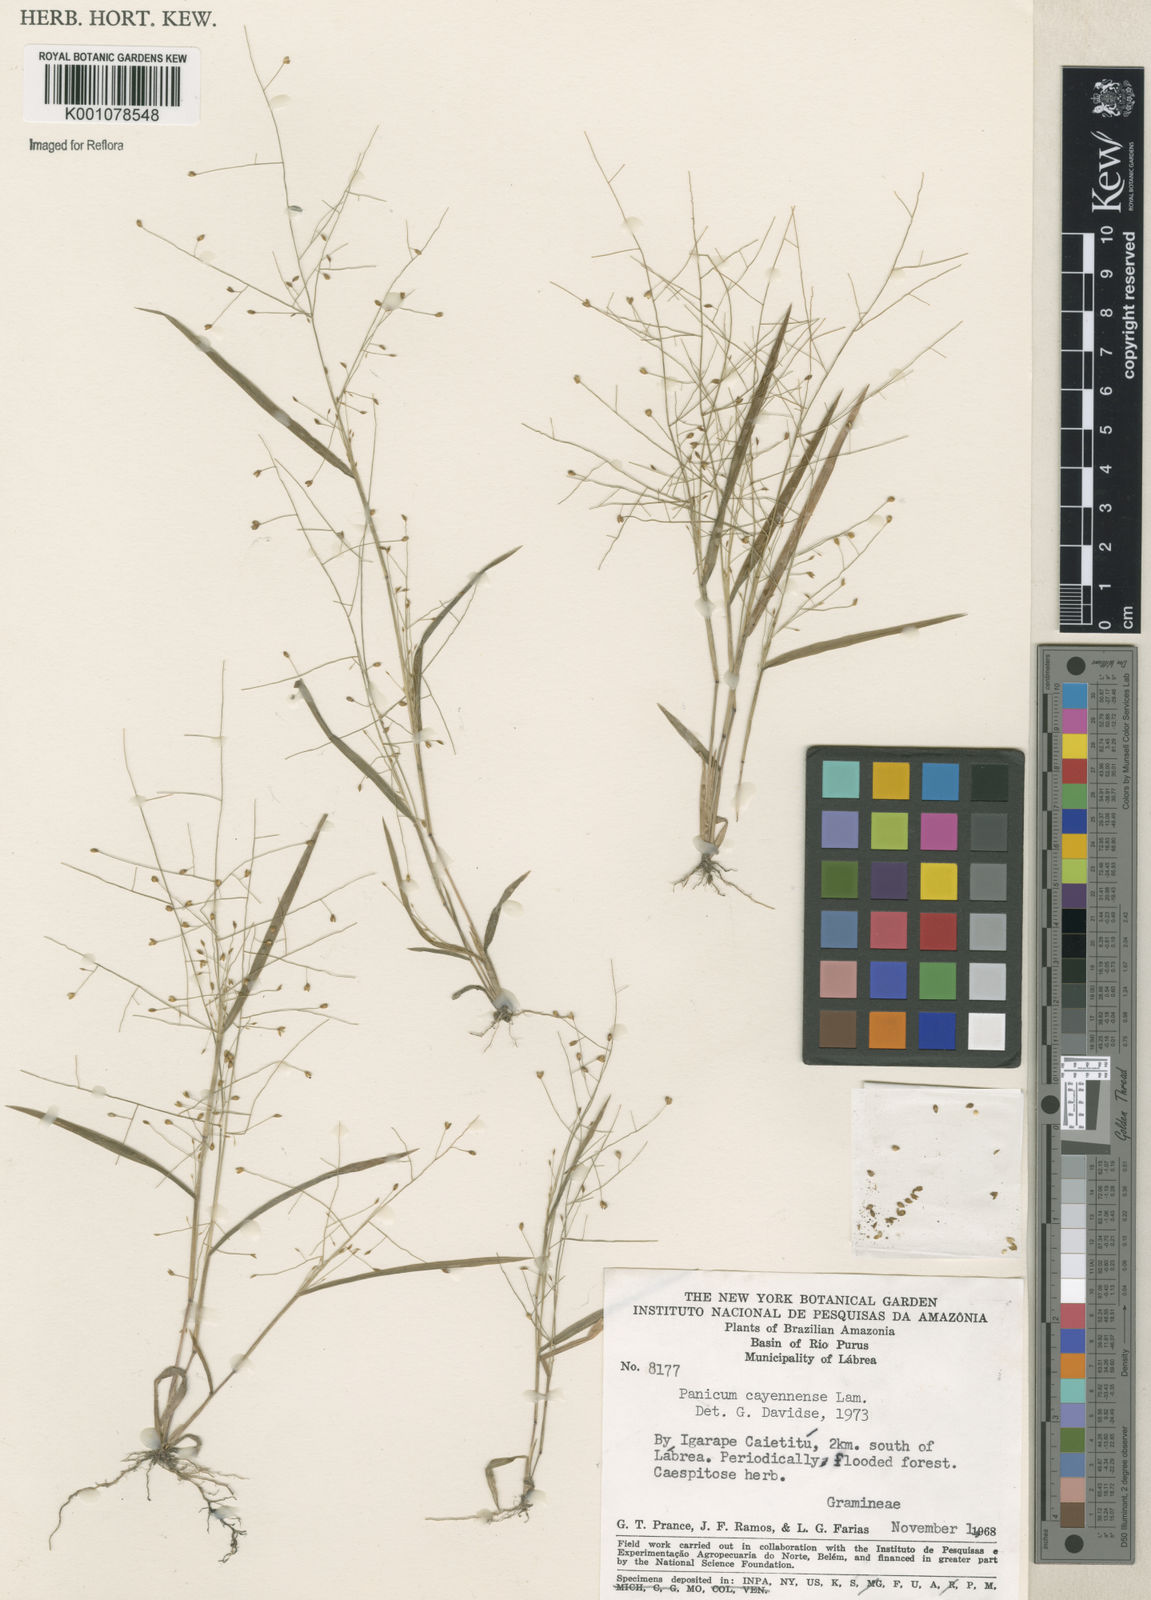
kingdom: Plantae
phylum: Tracheophyta
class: Liliopsida
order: Poales
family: Poaceae
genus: Panicum
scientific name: Panicum cayennense
